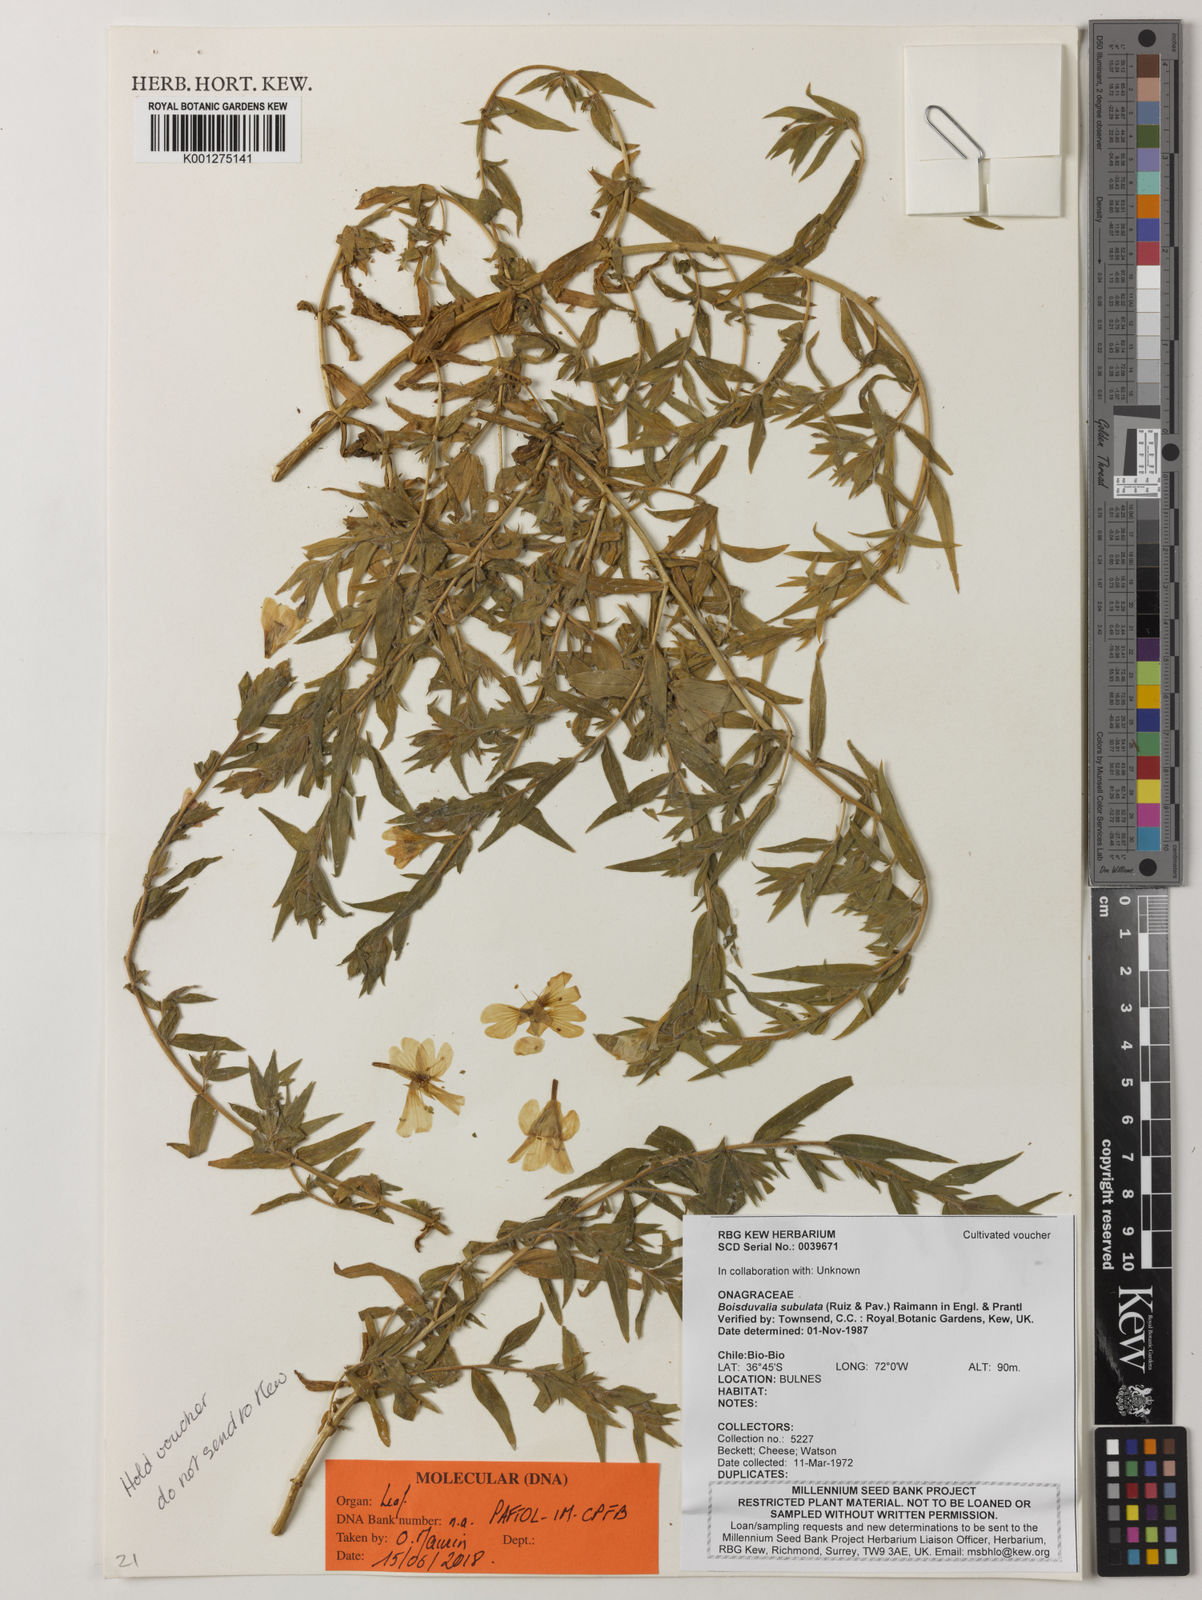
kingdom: Plantae
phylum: Tracheophyta
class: Magnoliopsida
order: Myrtales
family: Onagraceae
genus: Epilobium
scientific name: Epilobium subdentatum
